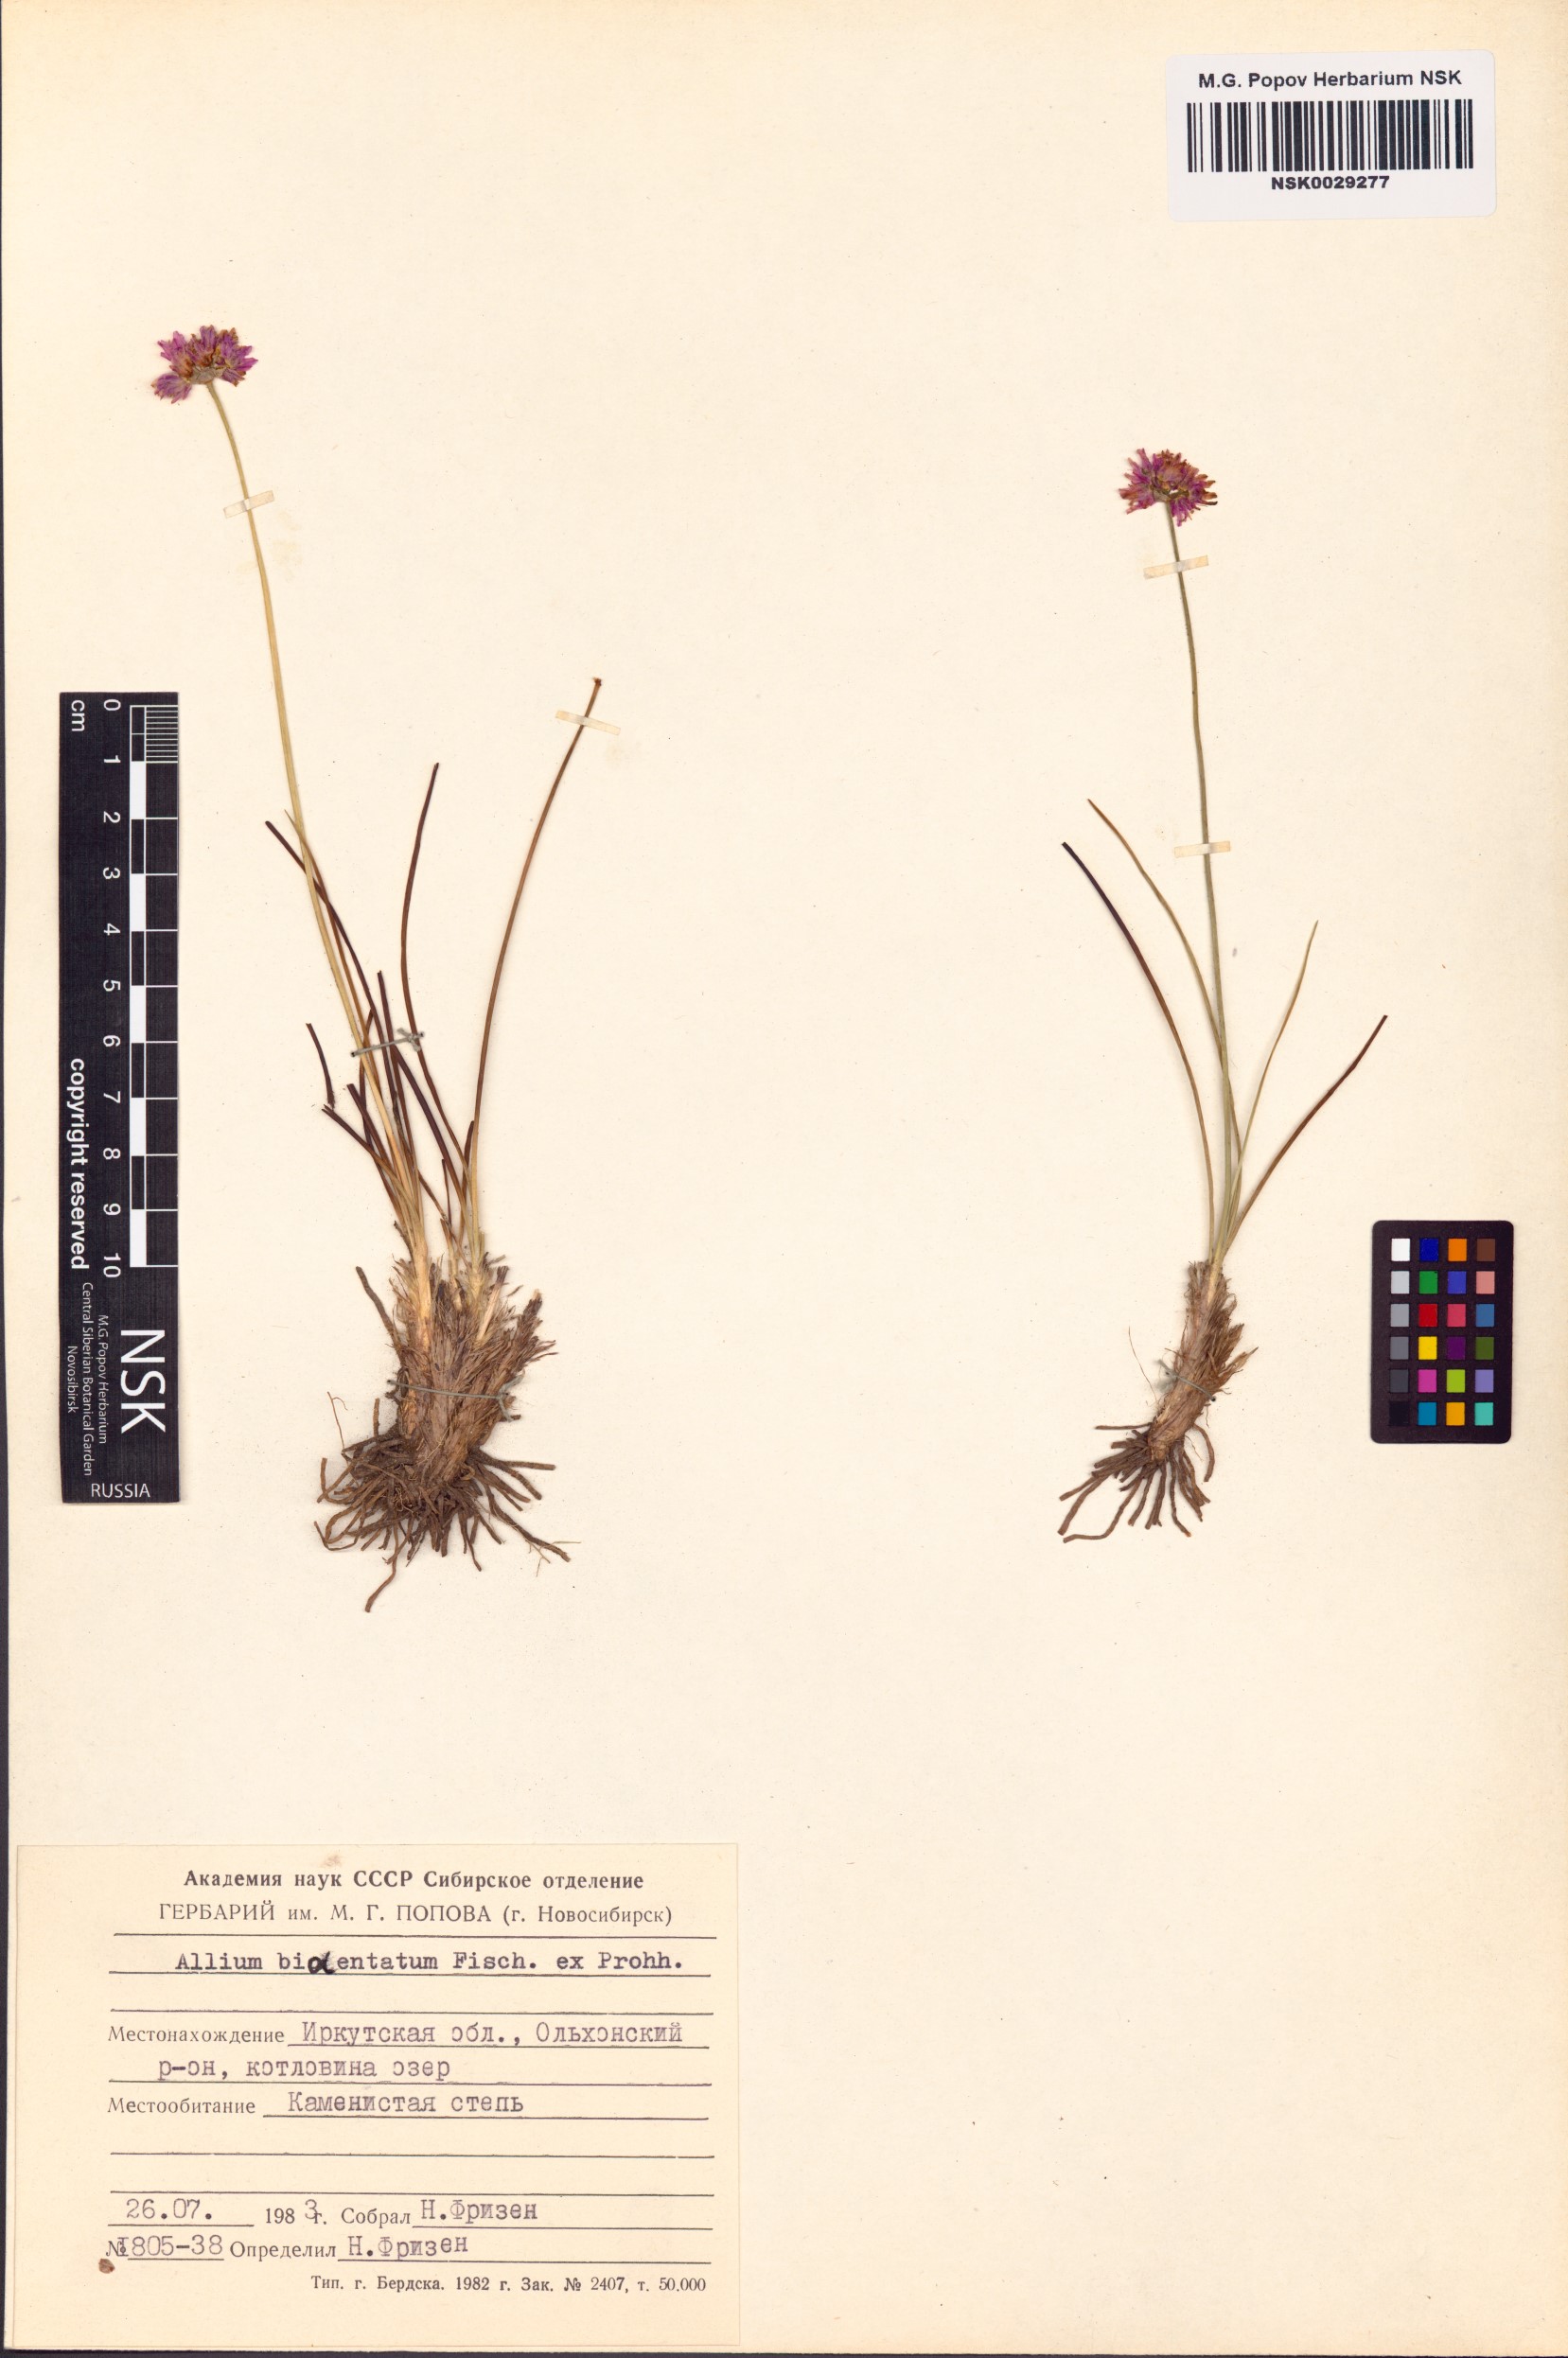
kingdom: Plantae
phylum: Tracheophyta
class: Liliopsida
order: Asparagales
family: Amaryllidaceae
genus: Allium
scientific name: Allium bidentatum
